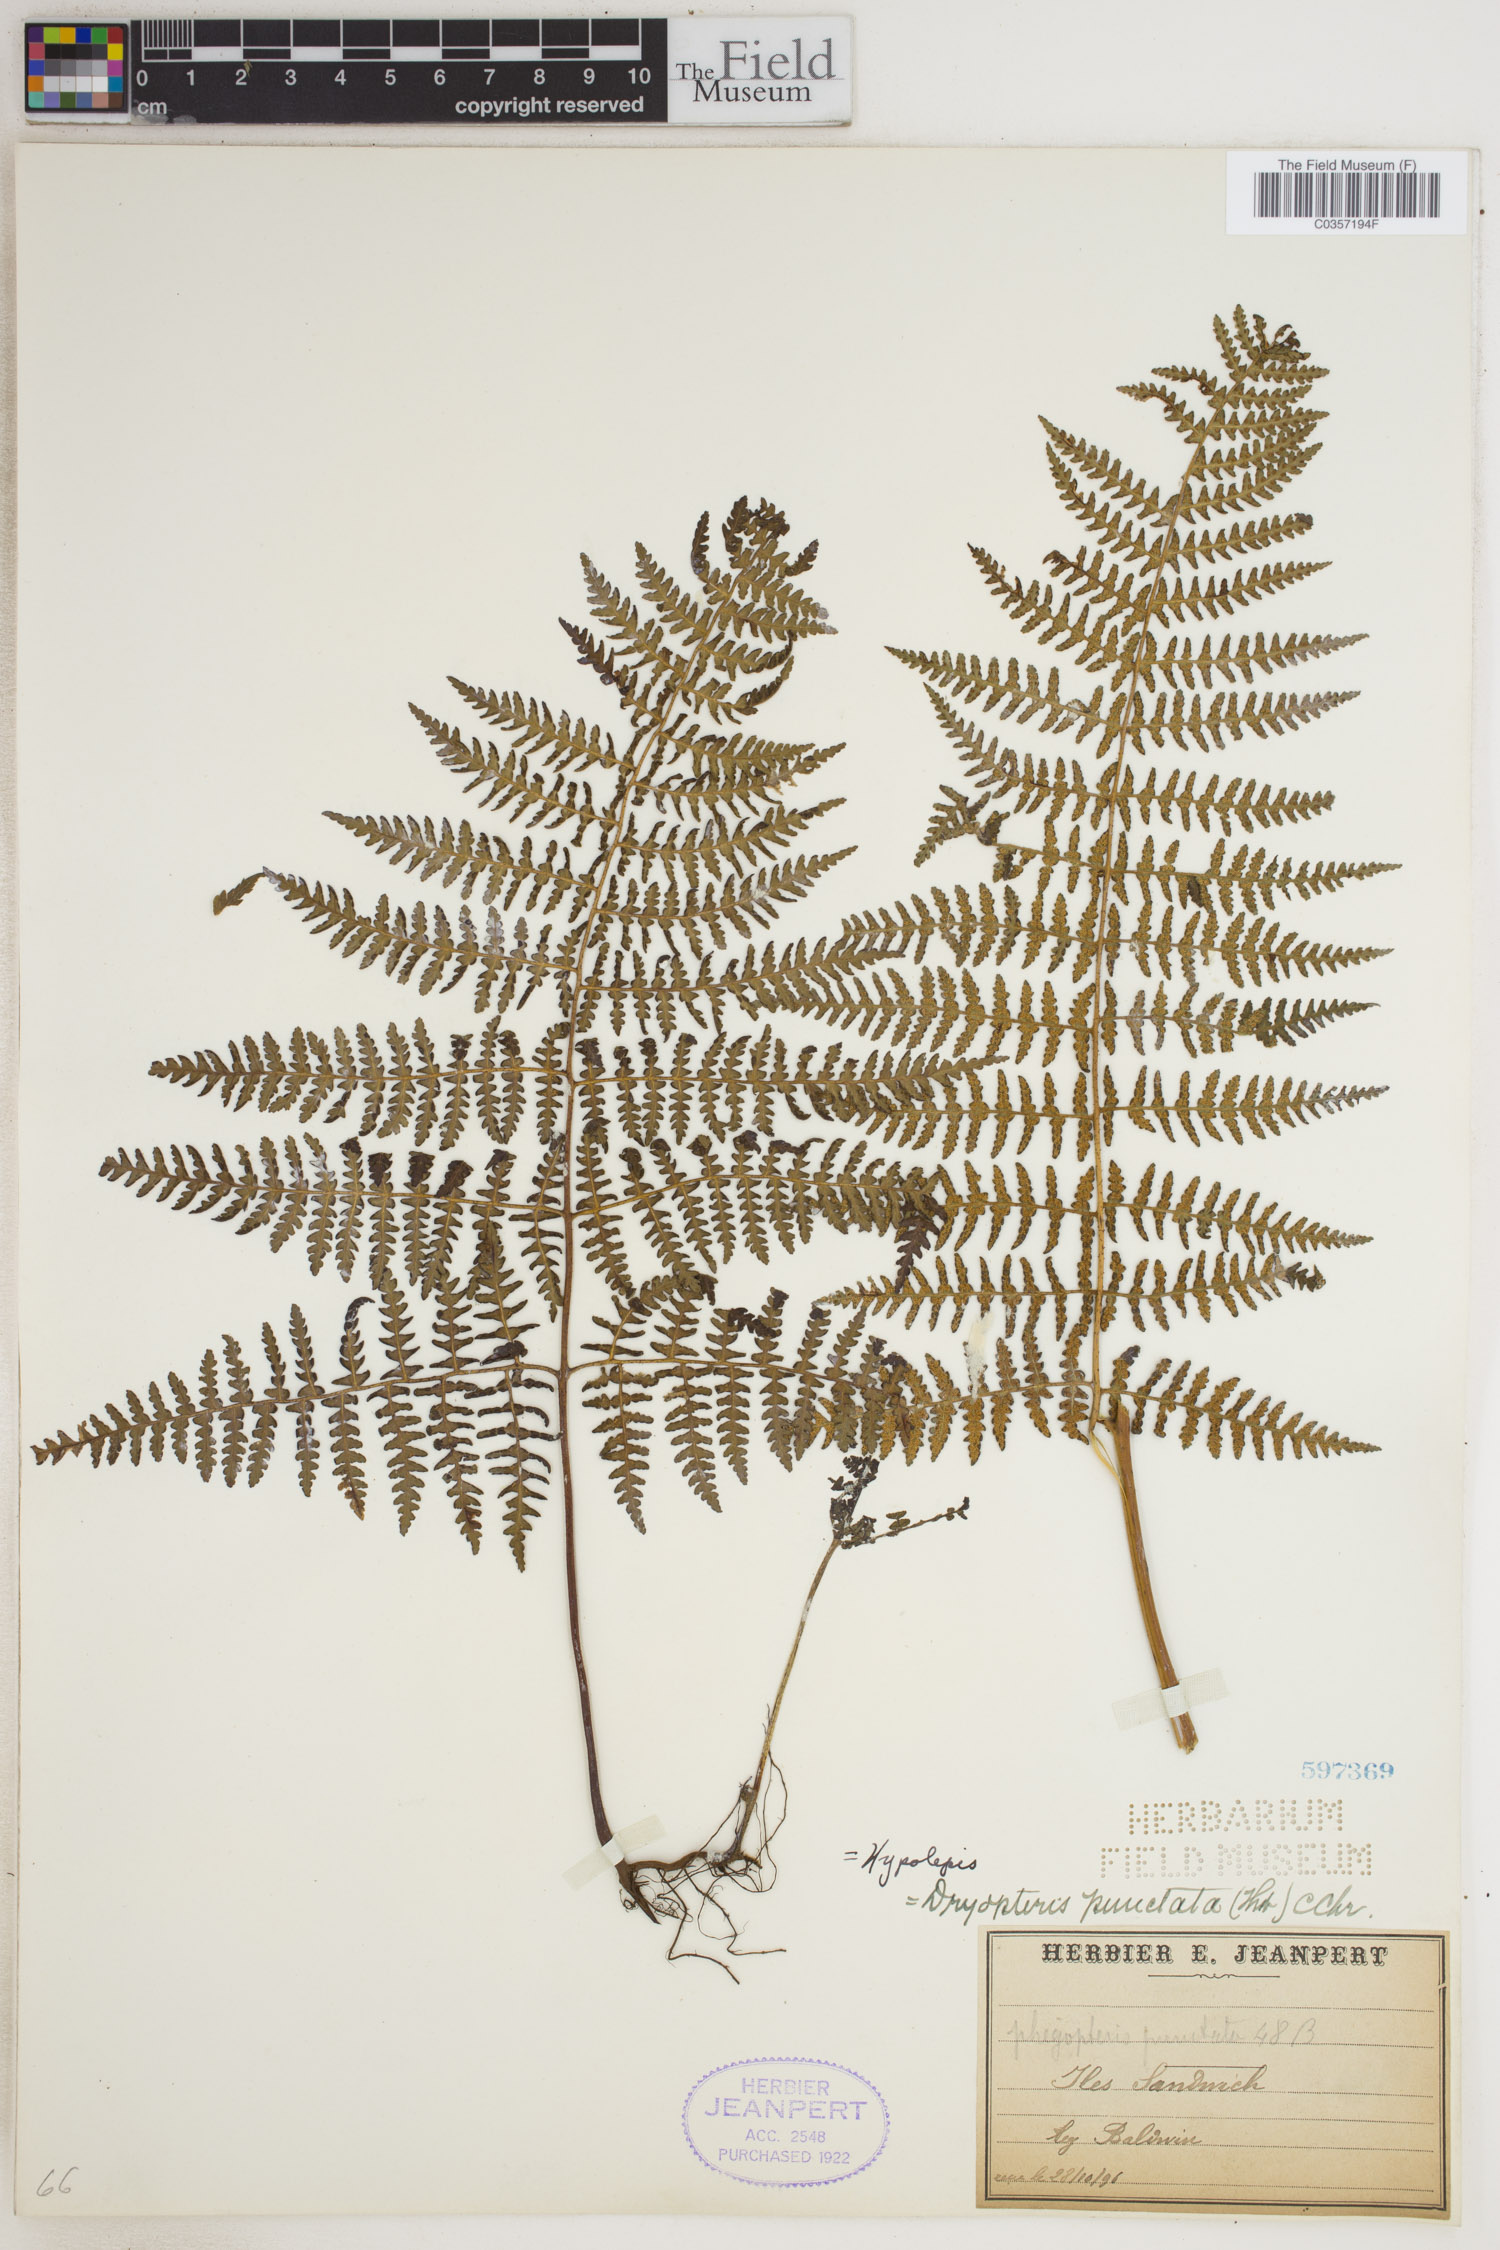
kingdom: Plantae
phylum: Tracheophyta
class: Polypodiopsida
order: Polypodiales
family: Dennstaedtiaceae
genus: Hypolepis
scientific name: Hypolepis punctata
